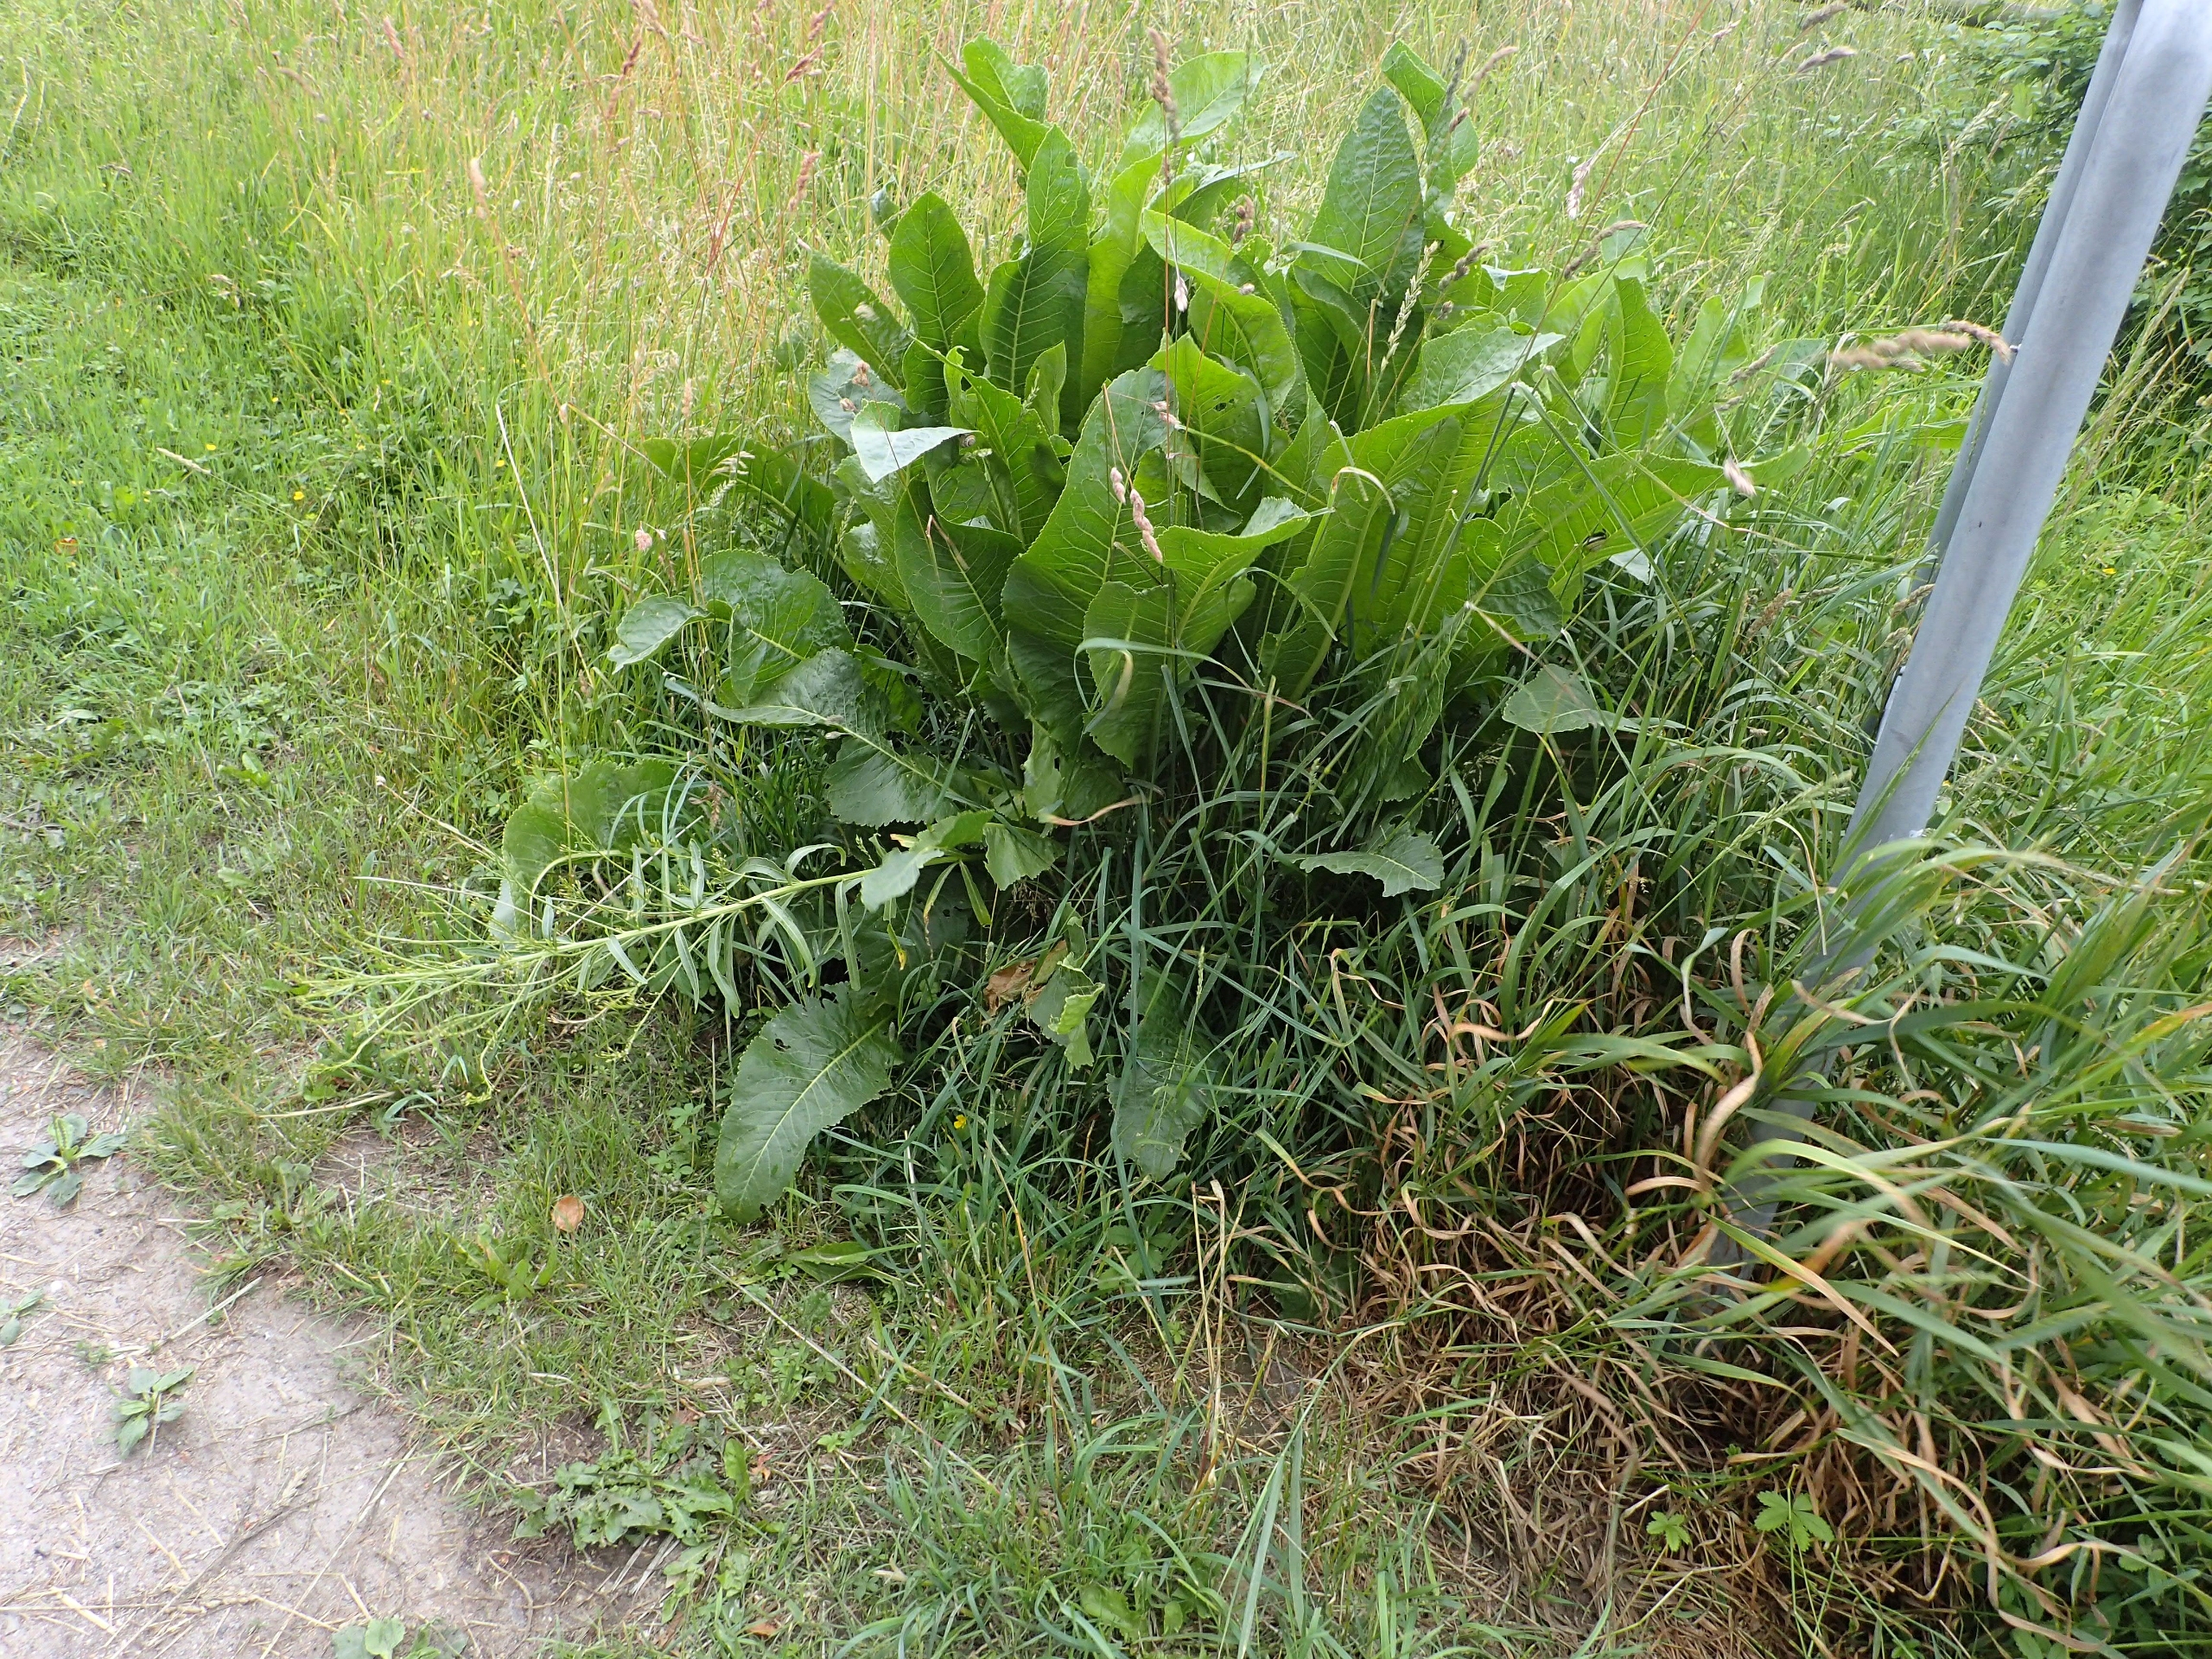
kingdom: Plantae
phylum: Tracheophyta
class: Magnoliopsida
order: Brassicales
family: Brassicaceae
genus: Armoracia
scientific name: Armoracia rusticana
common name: Peberrod
